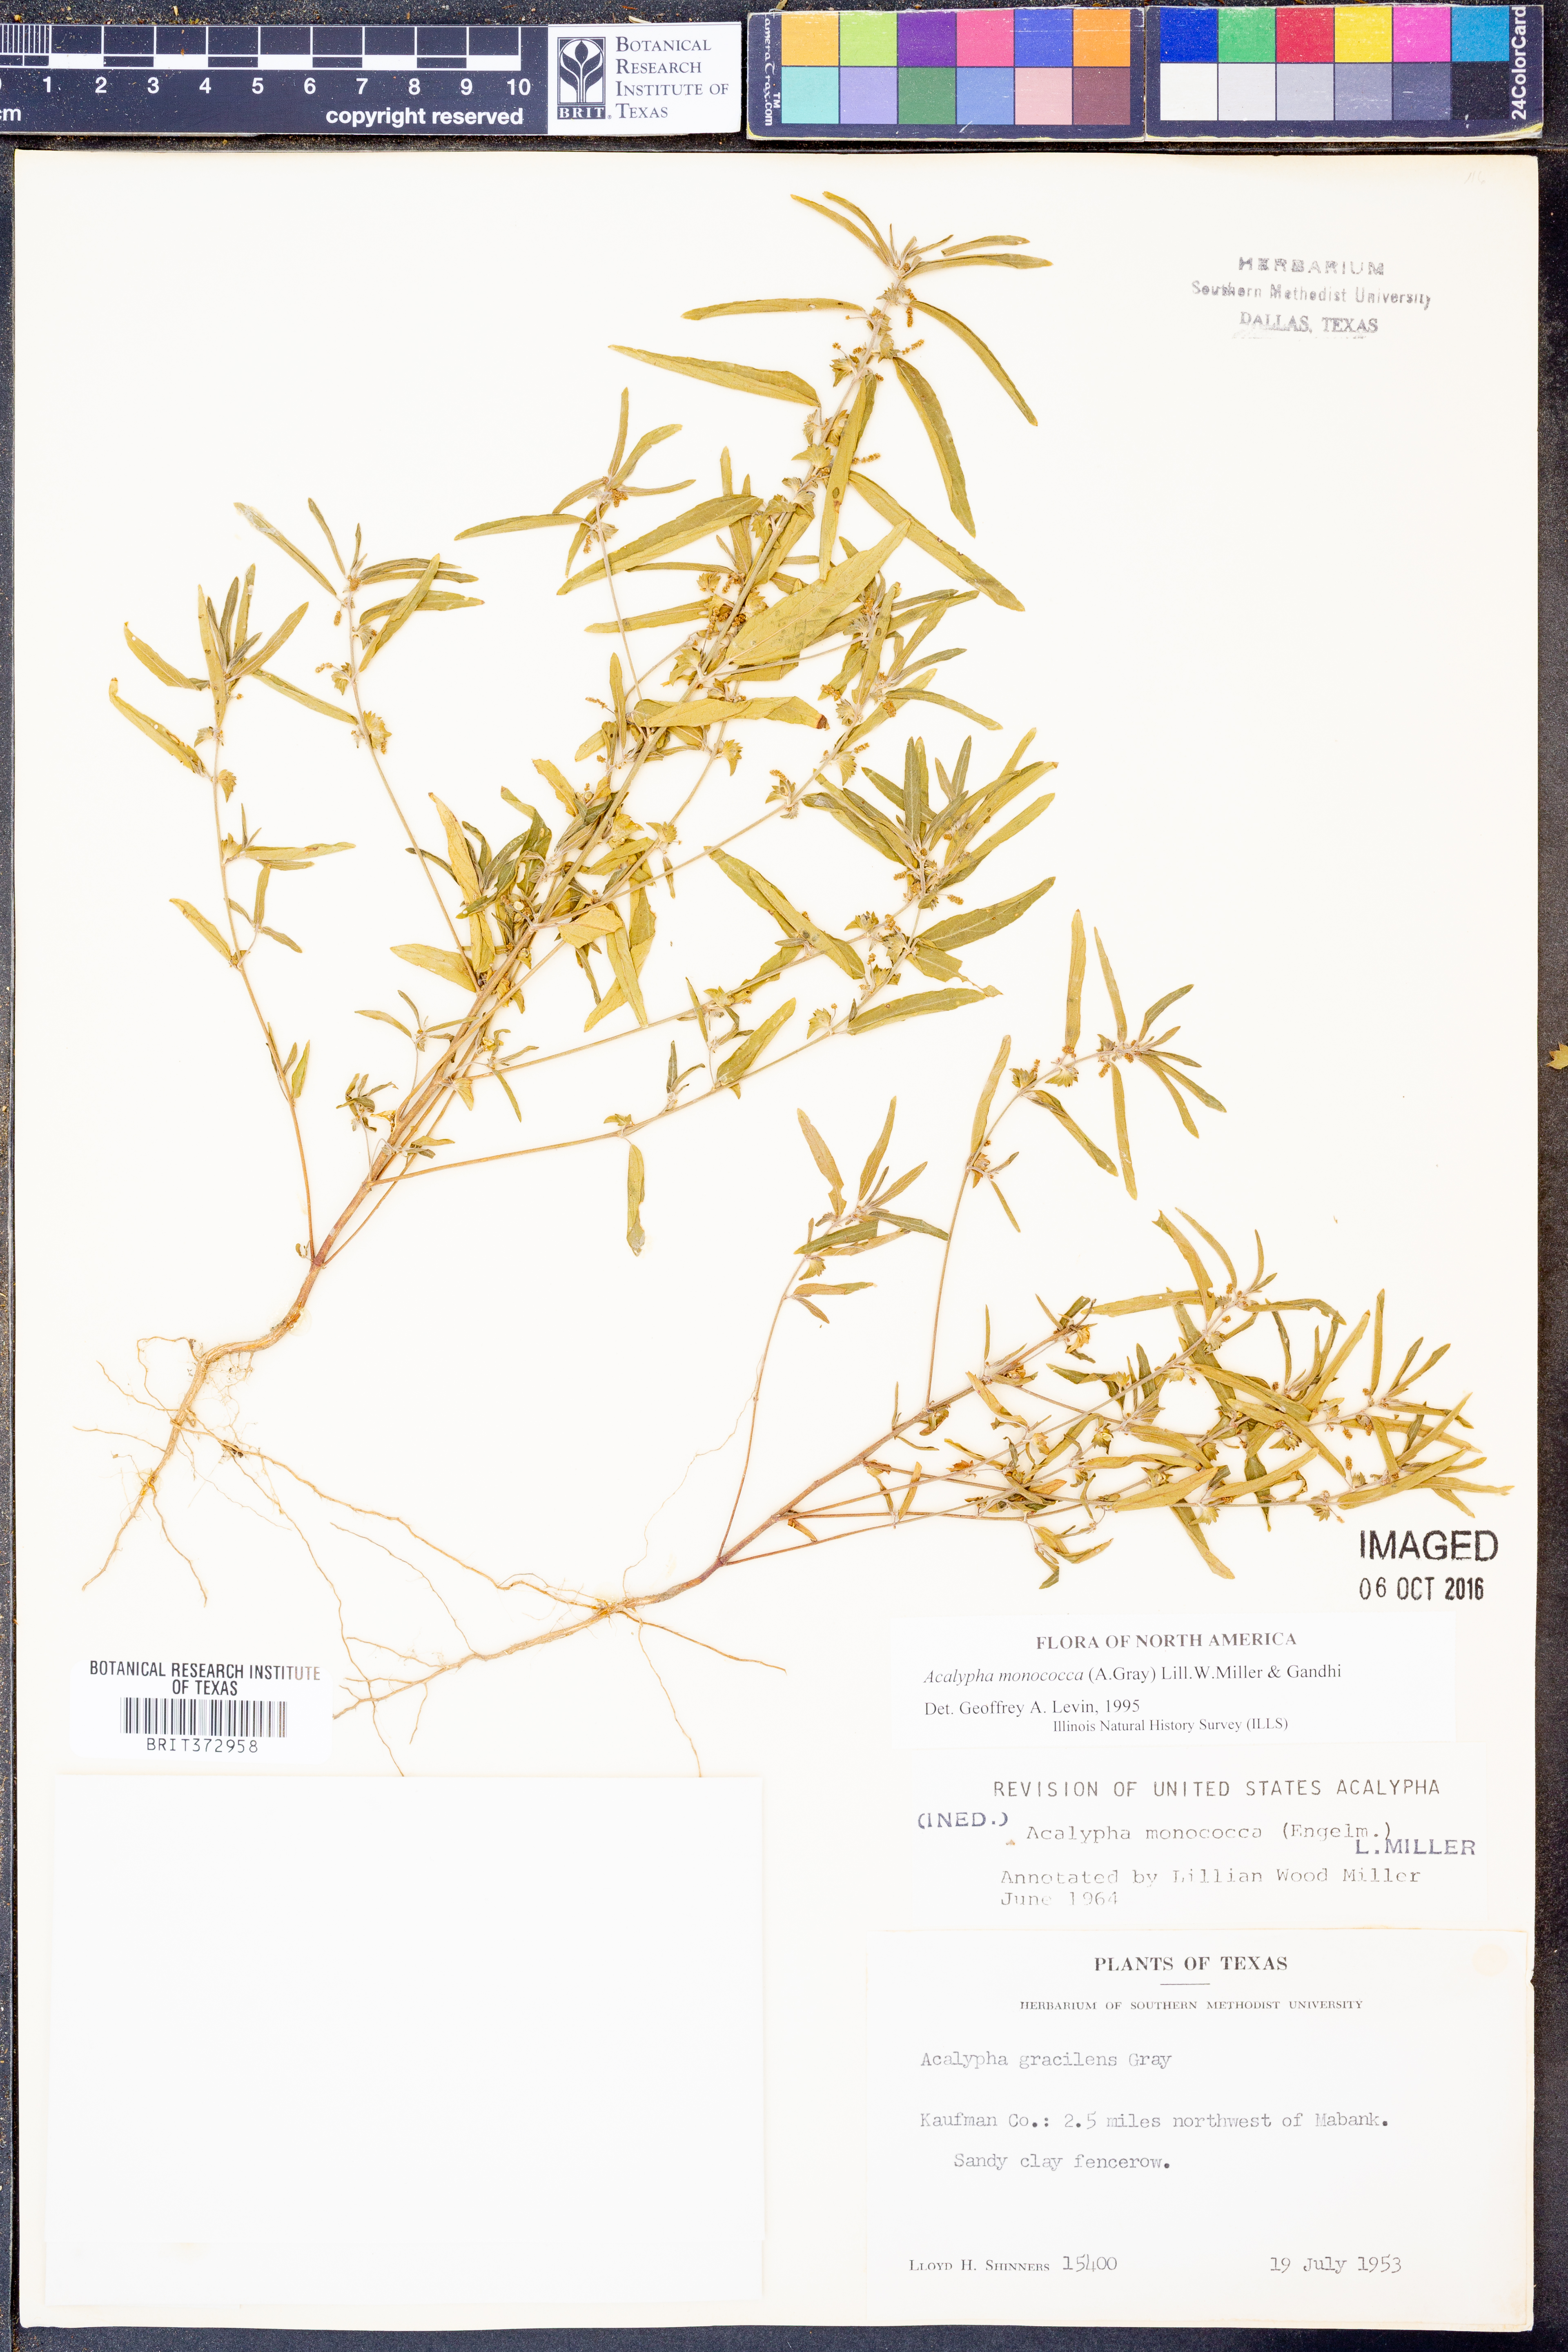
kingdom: Plantae
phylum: Tracheophyta
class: Magnoliopsida
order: Malpighiales
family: Euphorbiaceae
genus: Acalypha
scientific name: Acalypha monococca
